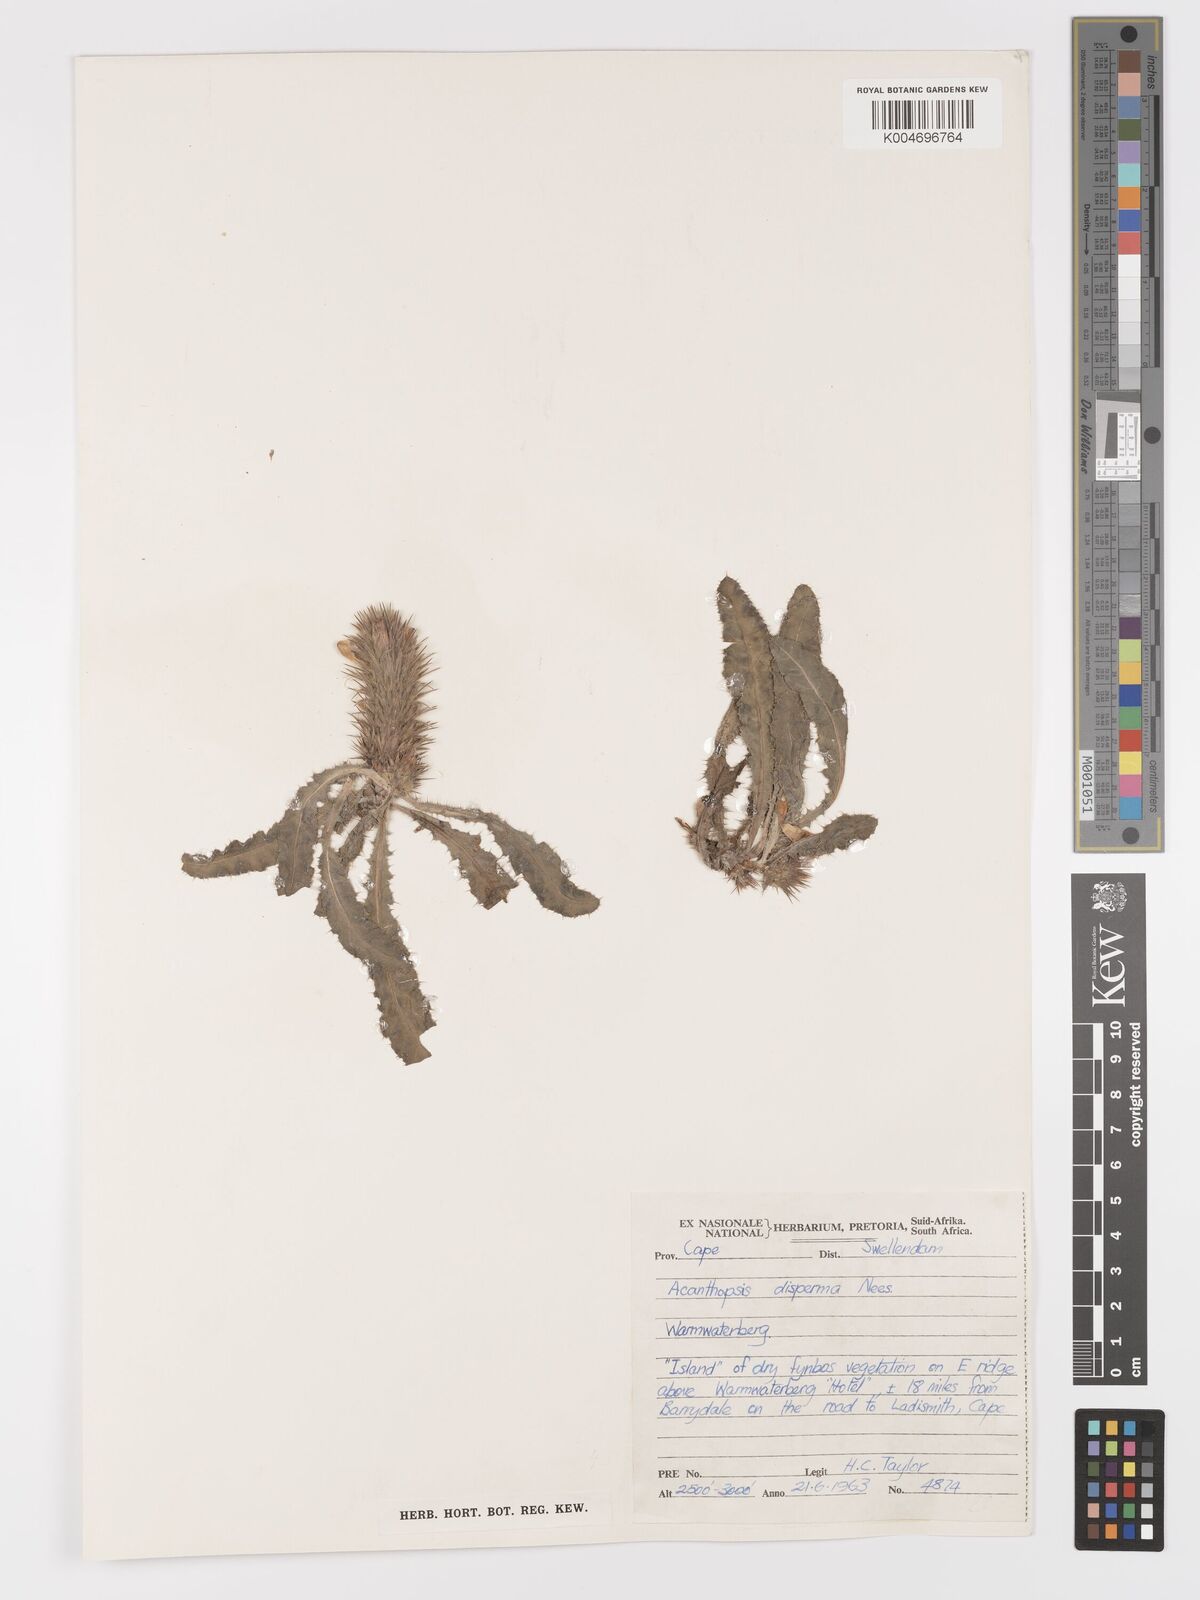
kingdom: Plantae
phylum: Tracheophyta
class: Magnoliopsida
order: Lamiales
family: Acanthaceae
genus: Acanthopsis
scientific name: Acanthopsis disperma
